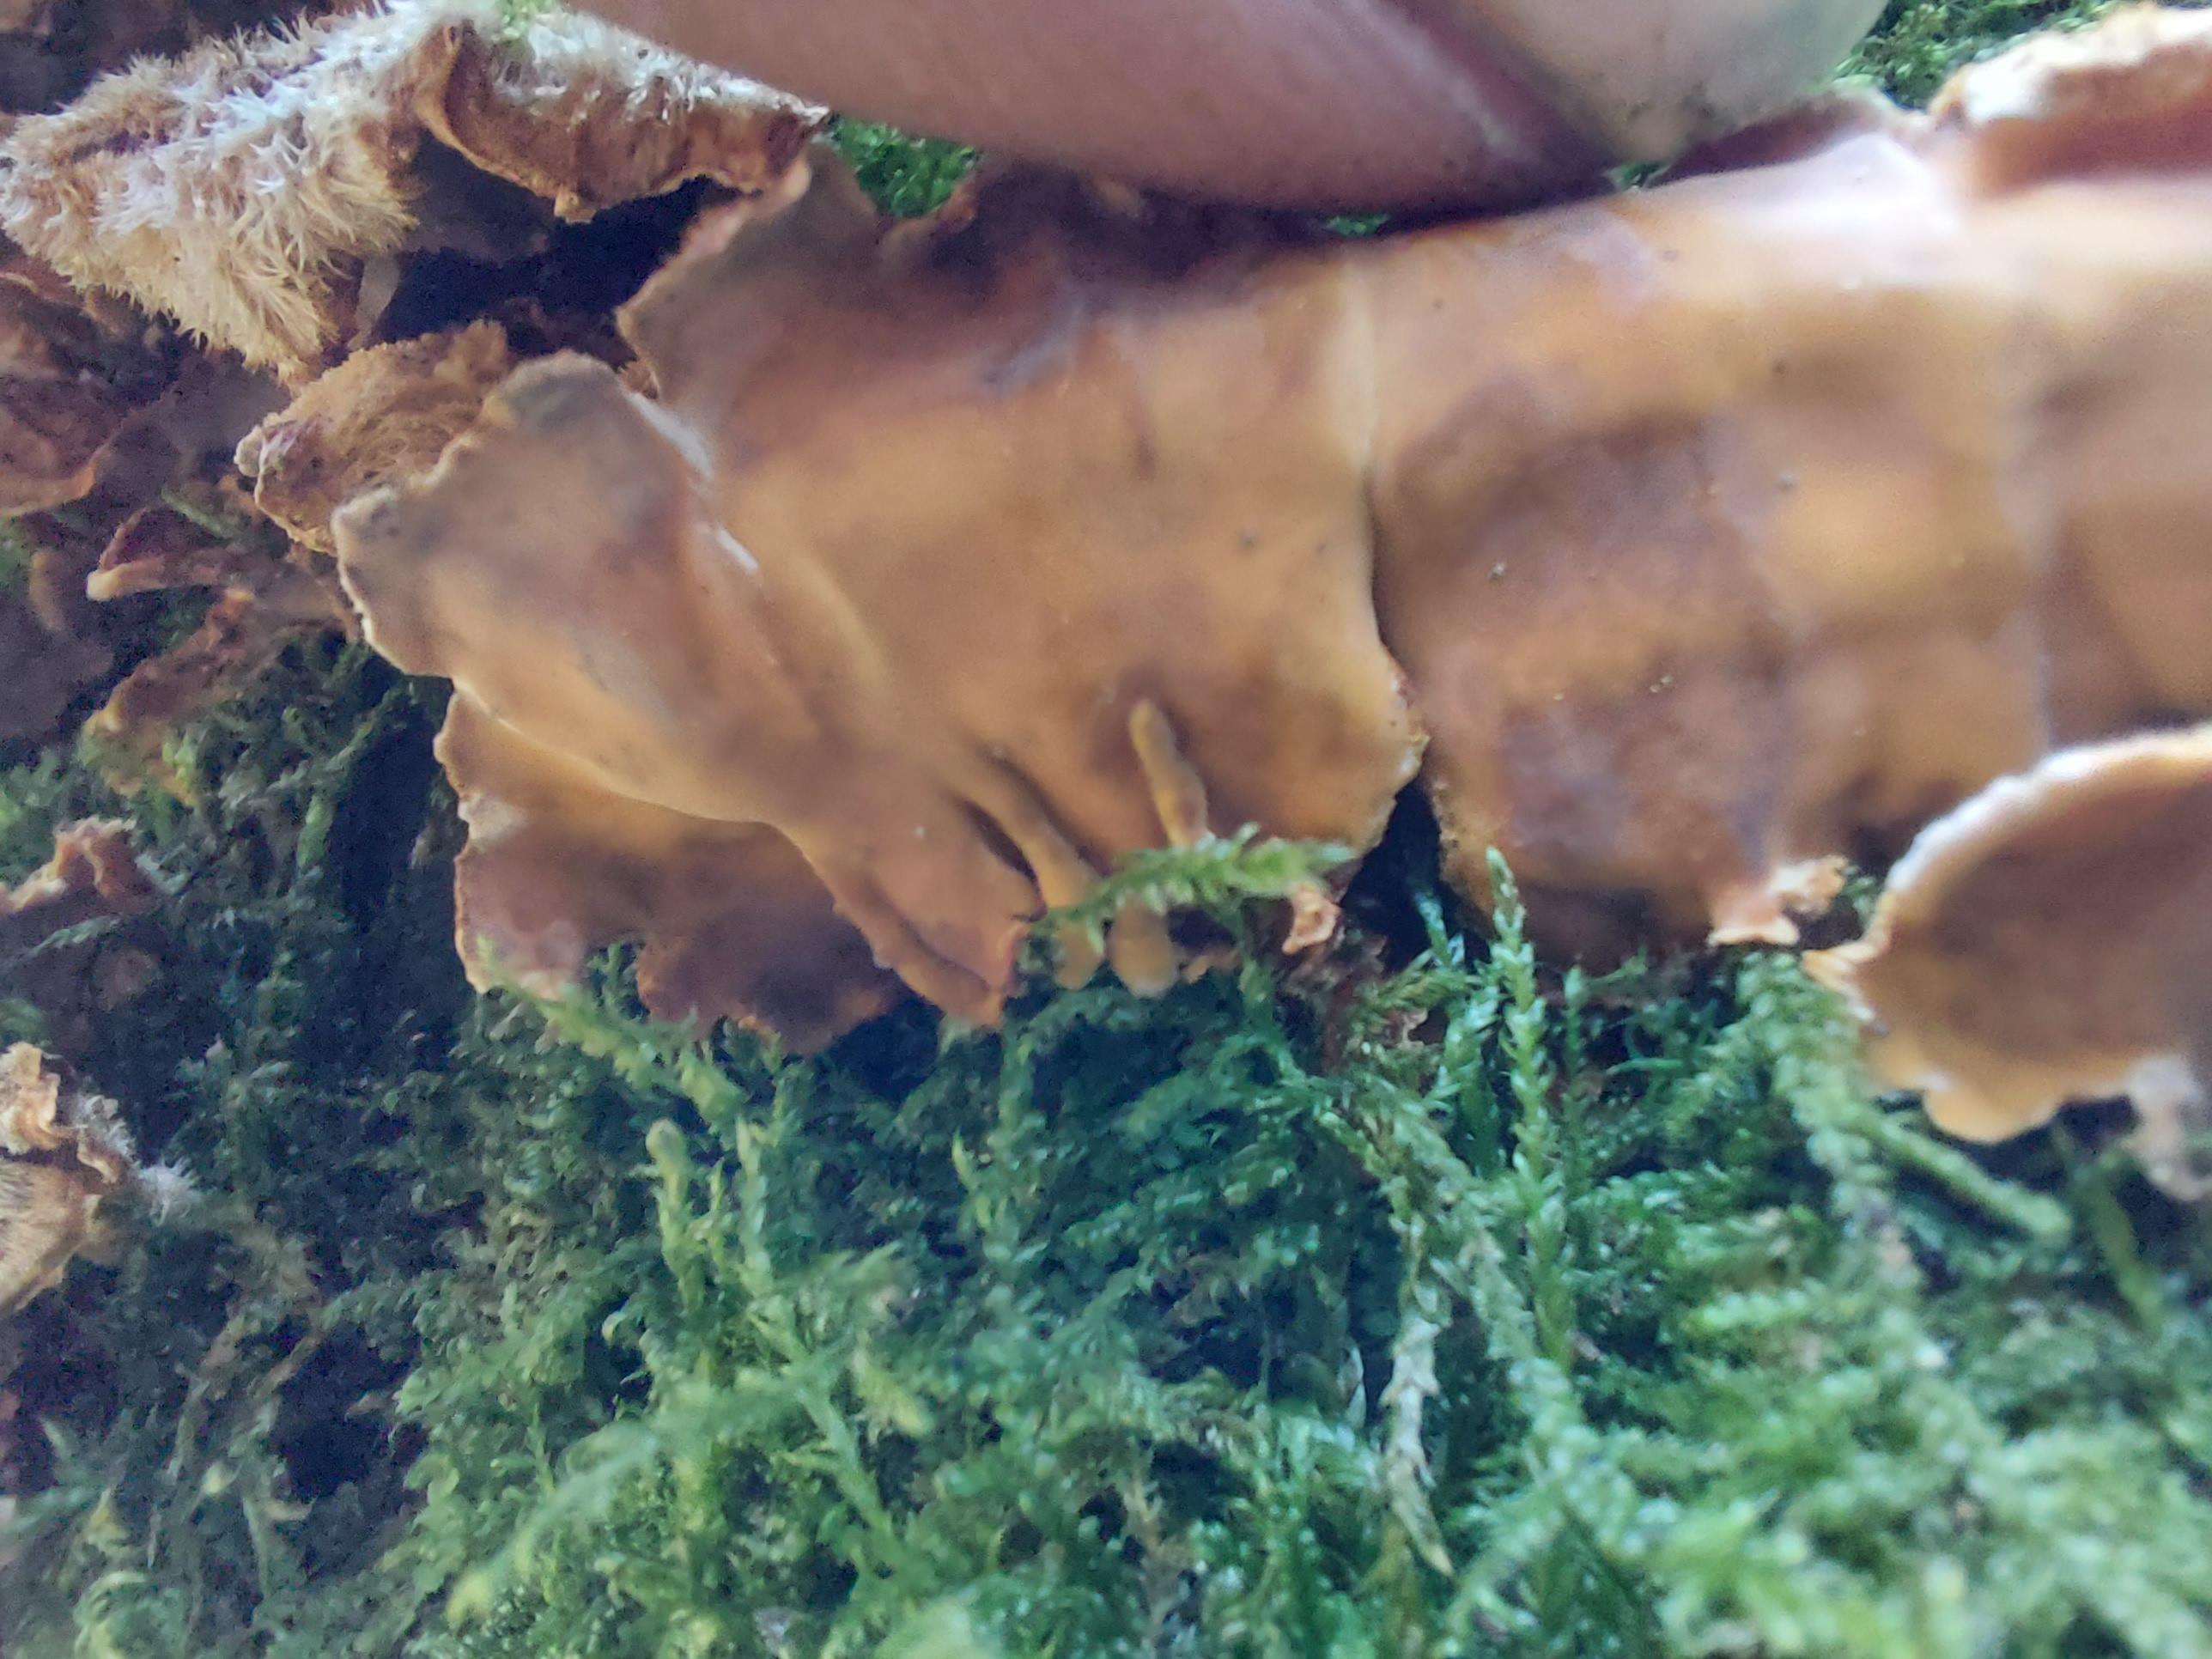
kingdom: Fungi
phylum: Basidiomycota
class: Agaricomycetes
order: Russulales
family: Stereaceae
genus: Stereum
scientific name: Stereum hirsutum
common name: håret lædersvamp
